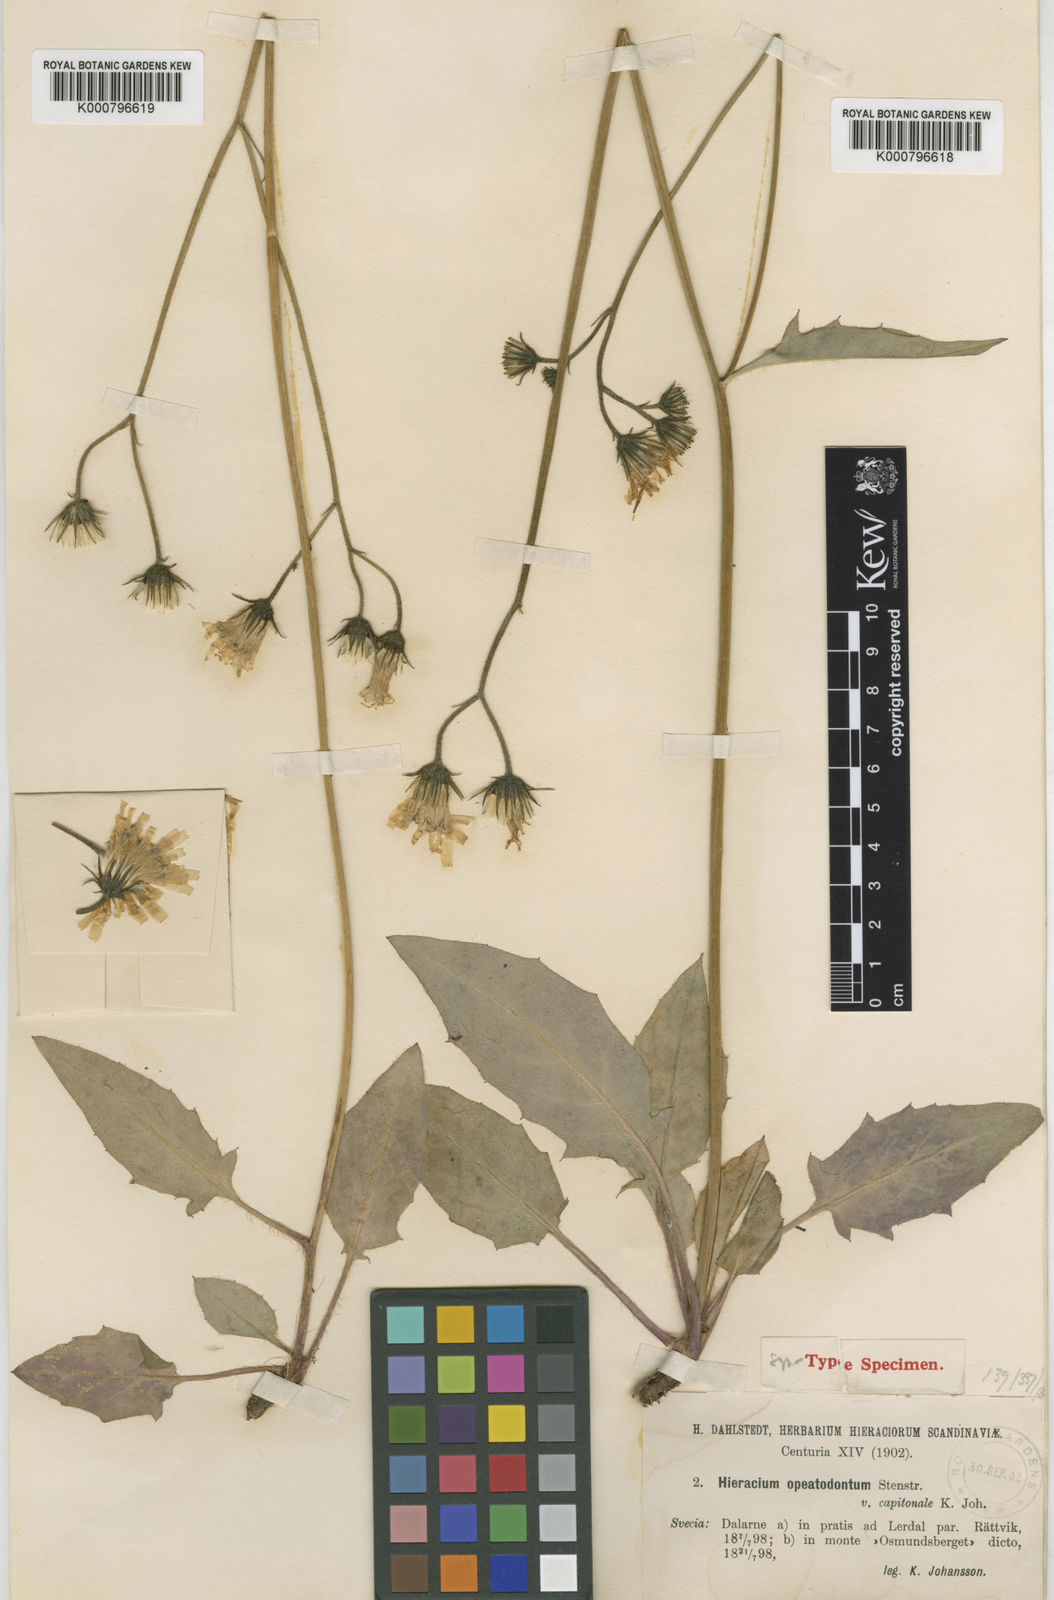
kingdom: Plantae
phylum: Tracheophyta
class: Magnoliopsida
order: Asterales
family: Asteraceae
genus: Hieracium
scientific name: Hieracium murorum
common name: Wall hawkweed
